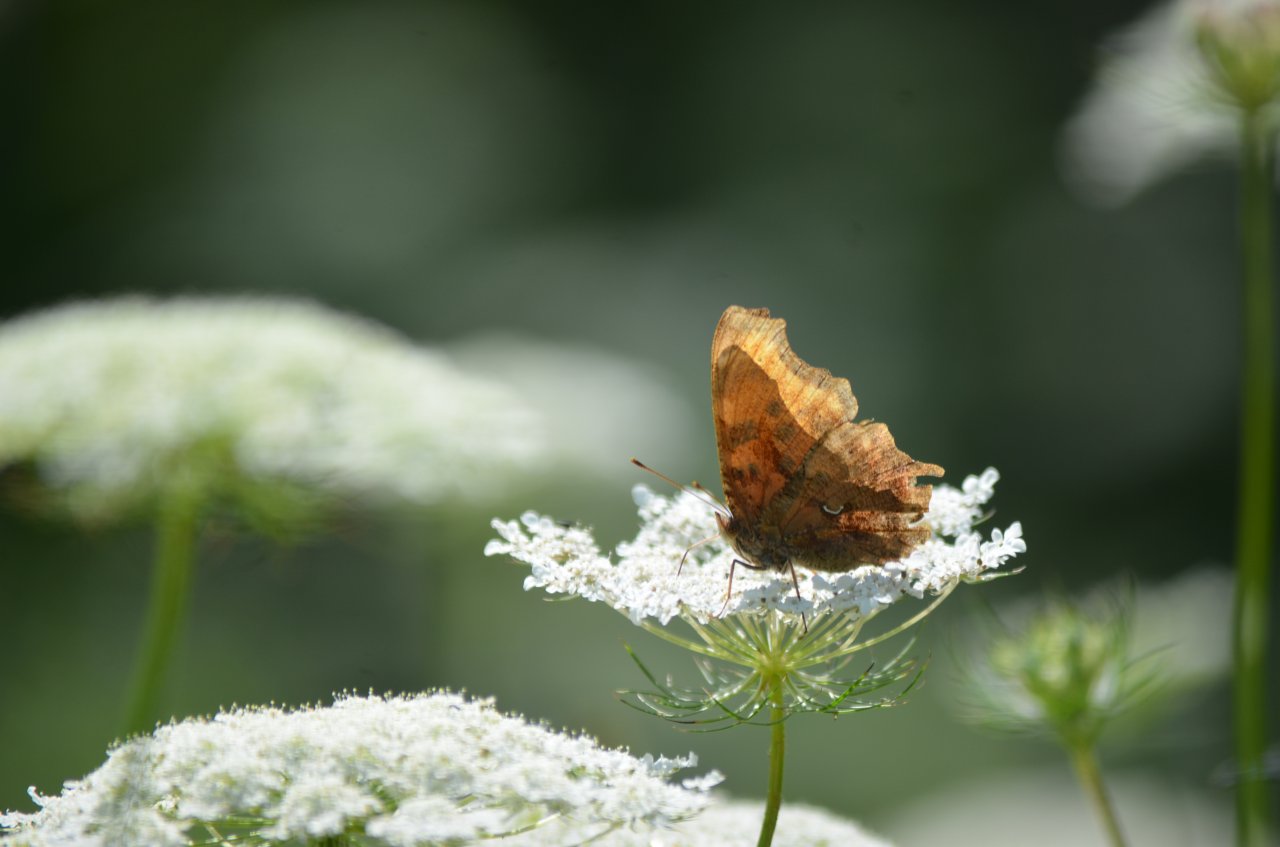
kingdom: Animalia
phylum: Arthropoda
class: Insecta
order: Lepidoptera
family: Nymphalidae
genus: Polygonia
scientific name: Polygonia comma
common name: Eastern Comma
